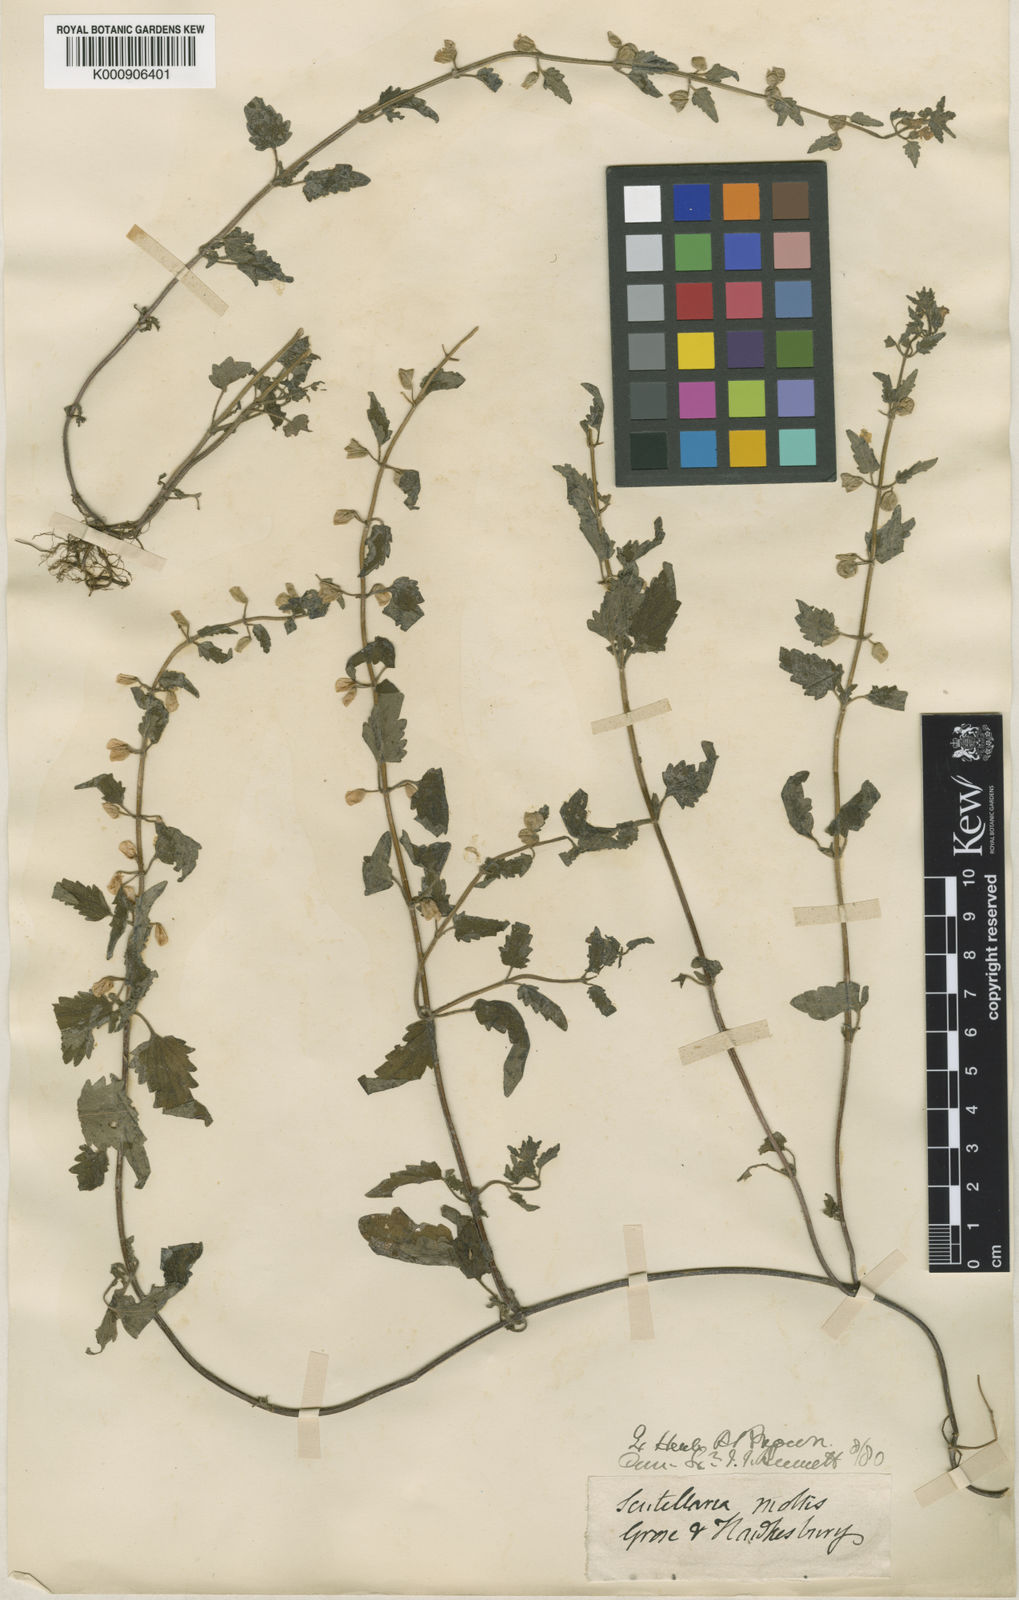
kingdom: Plantae
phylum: Tracheophyta
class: Magnoliopsida
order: Lamiales
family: Lamiaceae
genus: Scutellaria
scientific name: Scutellaria shweliensis
